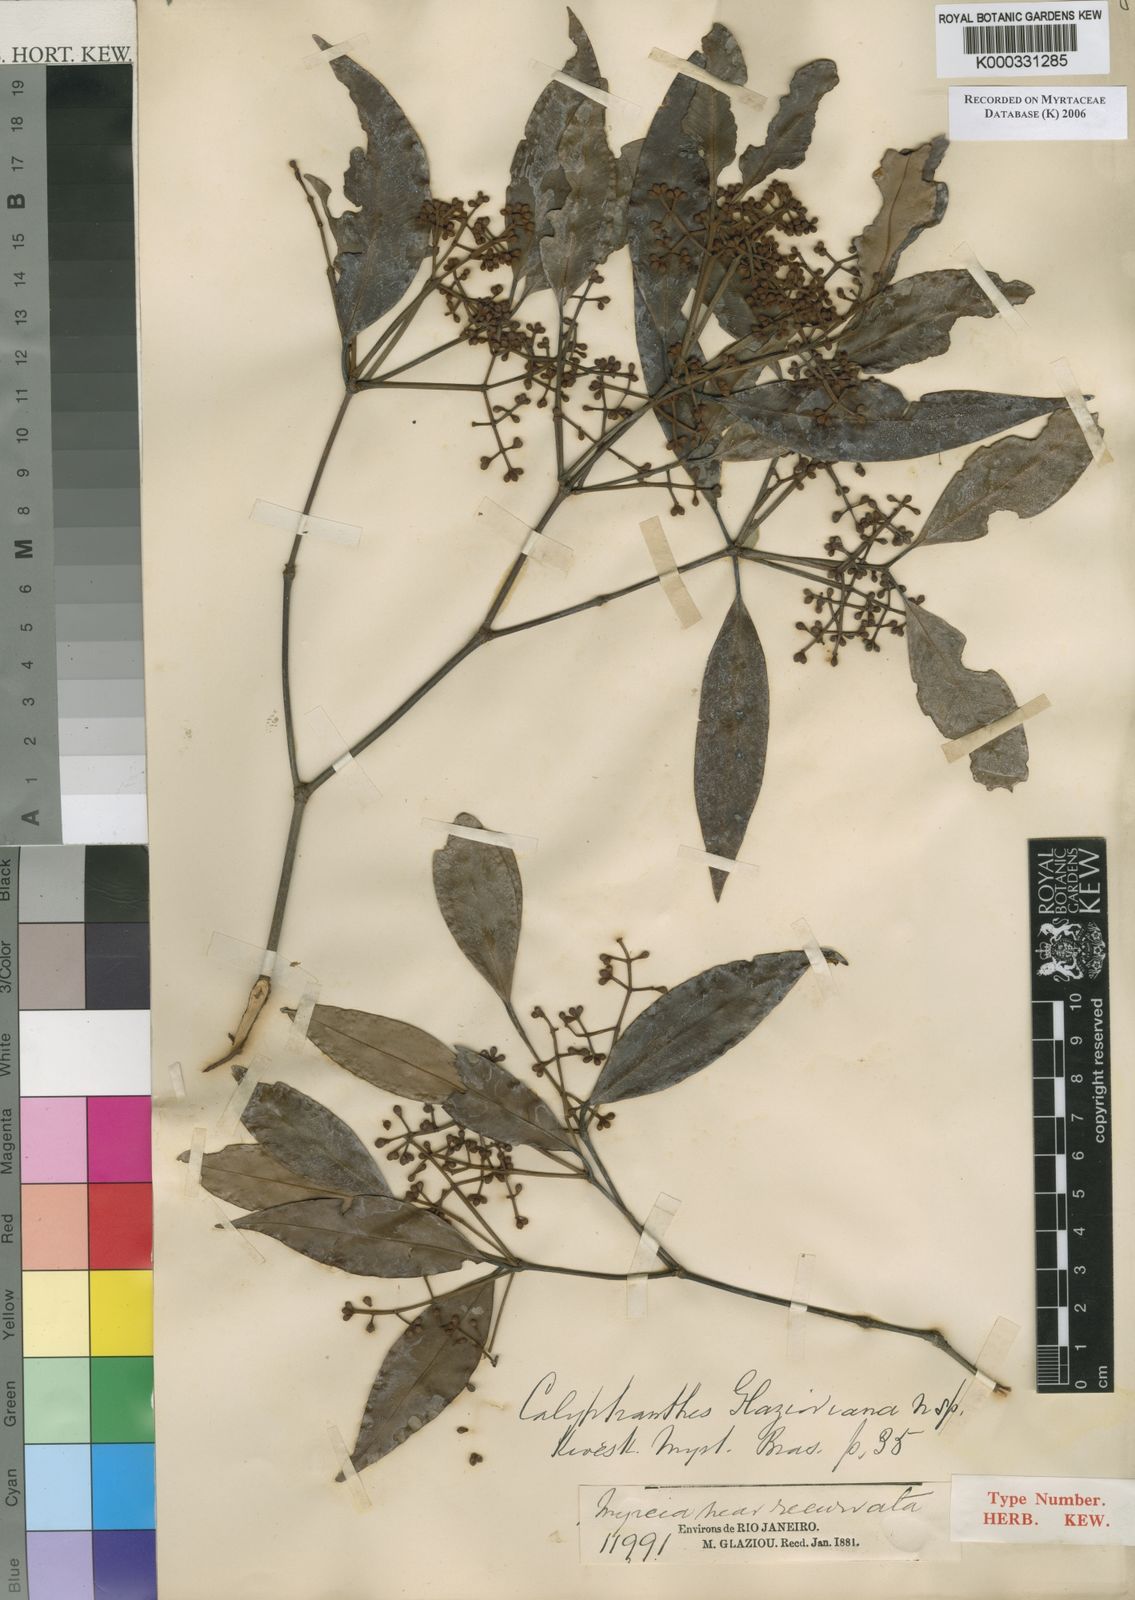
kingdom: Plantae
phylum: Tracheophyta
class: Magnoliopsida
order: Myrtales
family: Myrtaceae
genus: Calyptranthes
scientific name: Calyptranthes glazioviana
